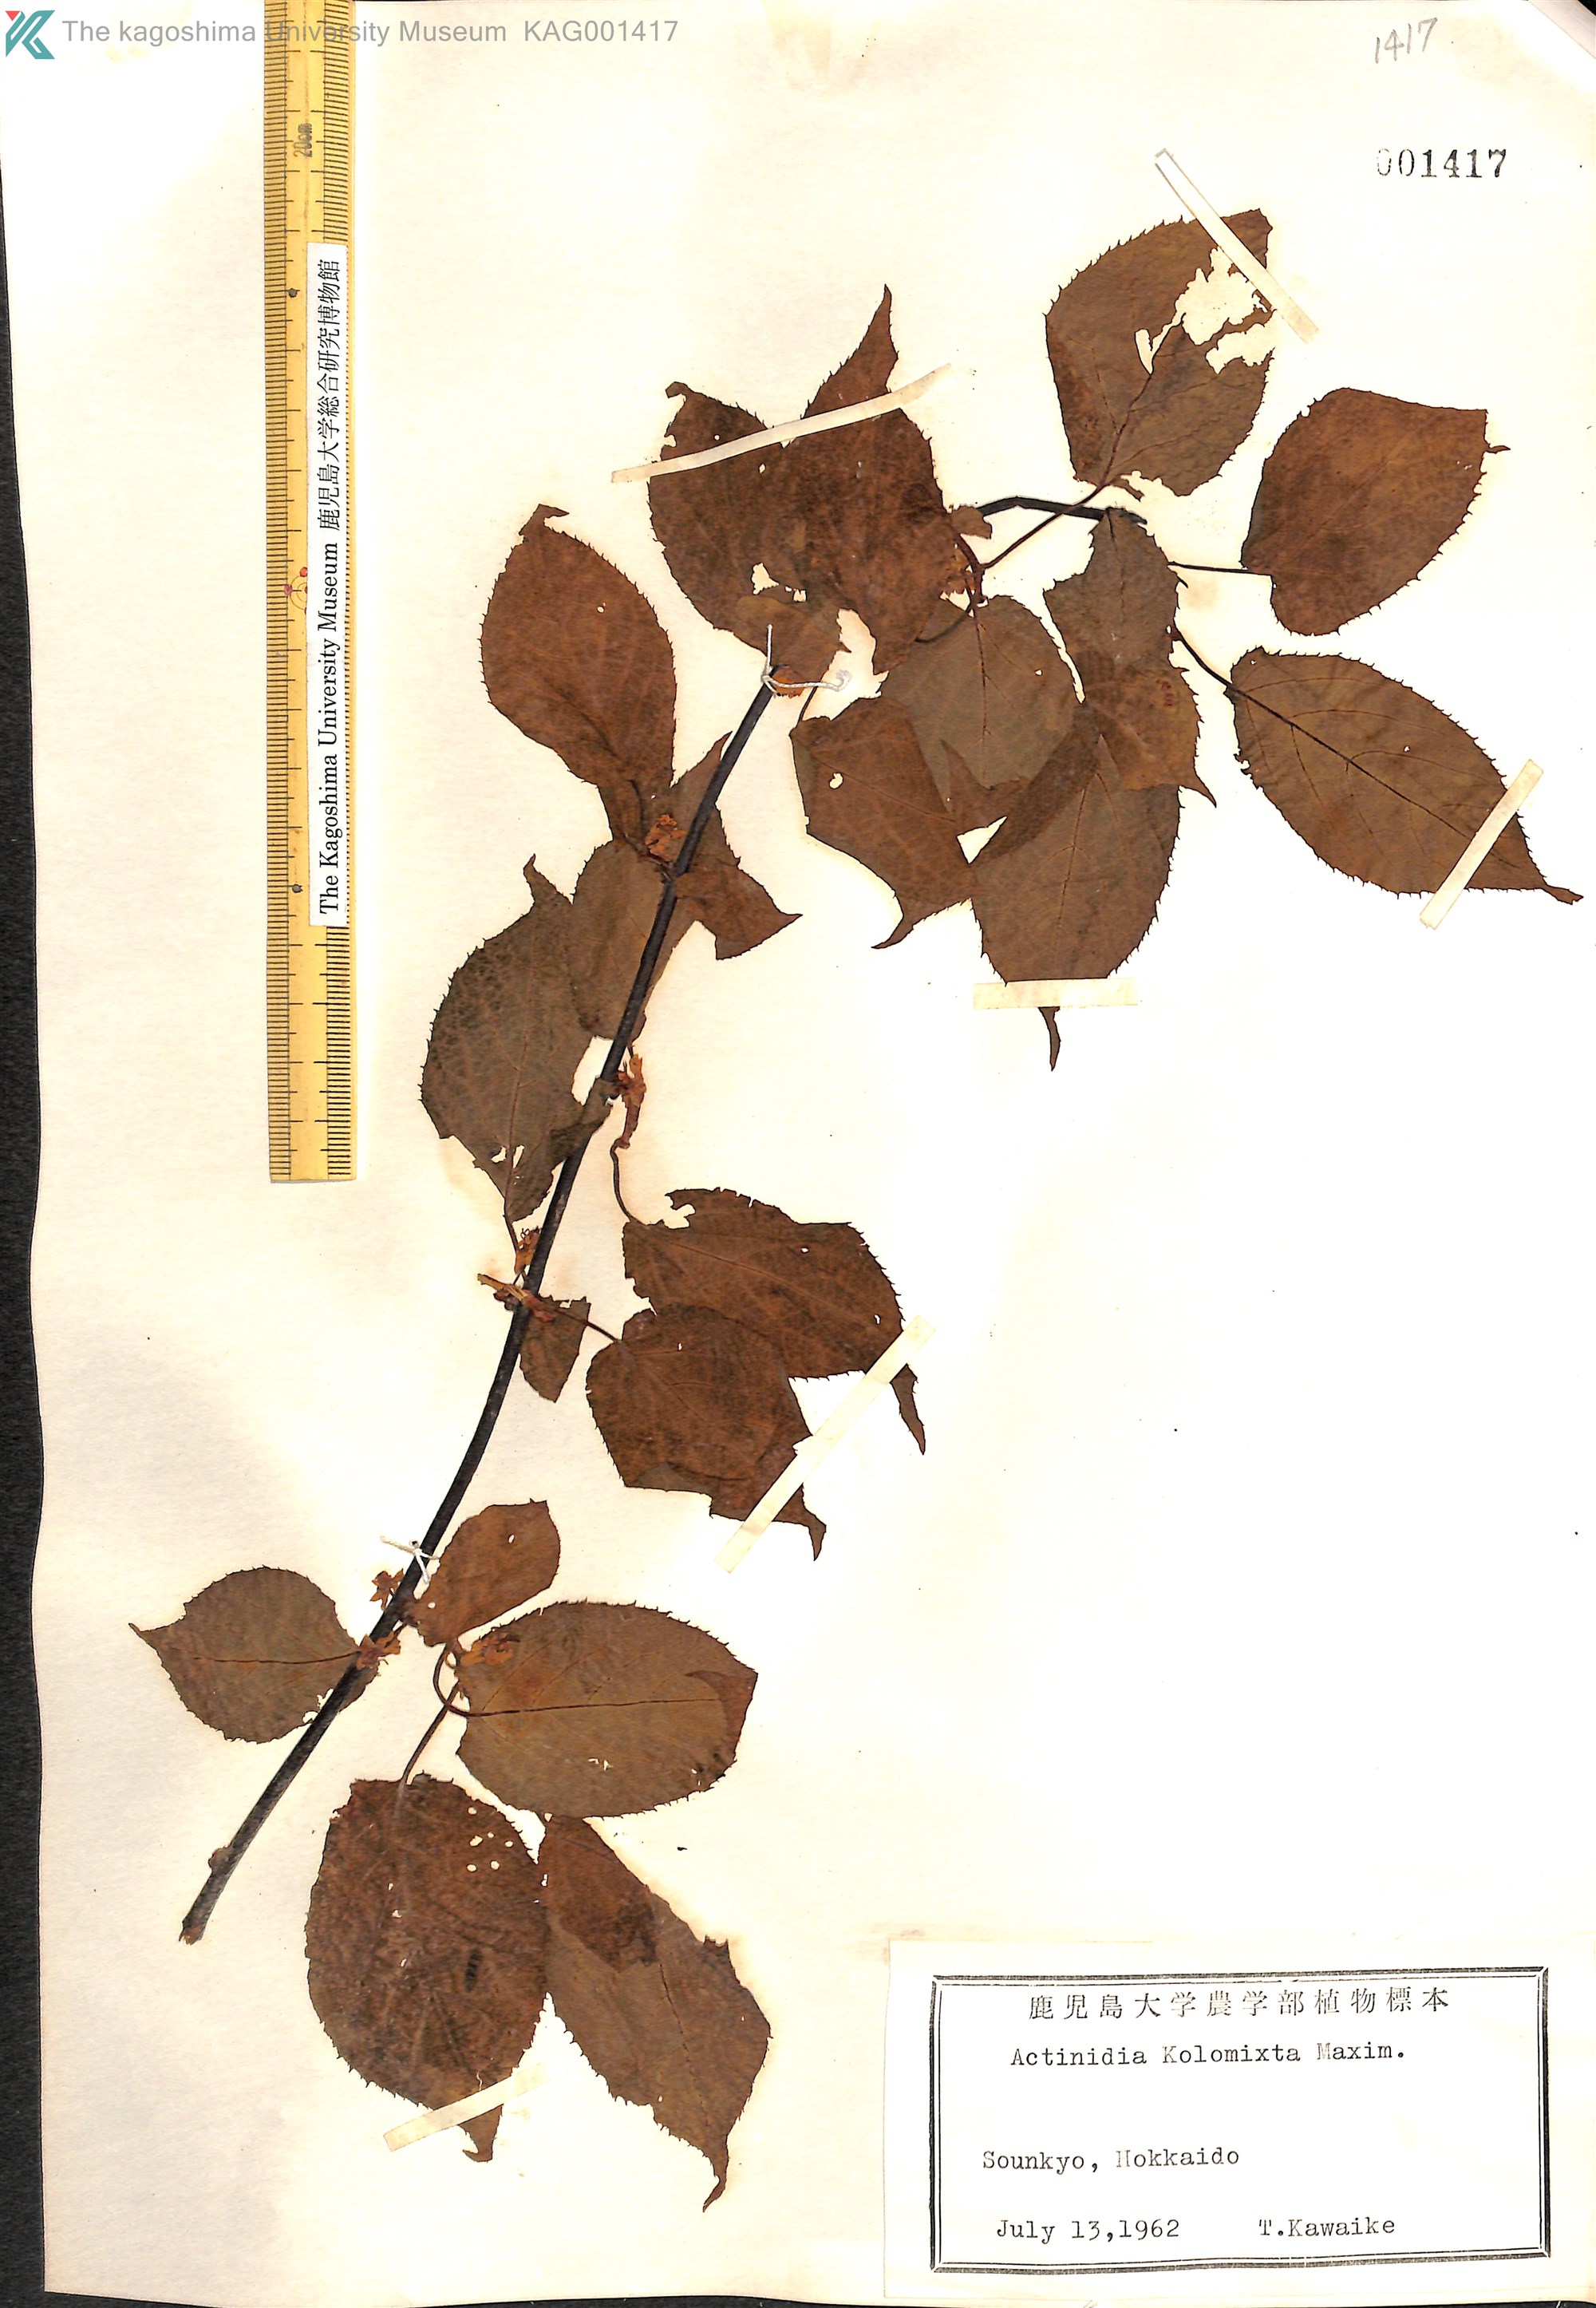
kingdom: Plantae
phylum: Tracheophyta
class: Magnoliopsida
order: Ericales
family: Actinidiaceae
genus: Actinidia
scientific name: Actinidia kolomikta
